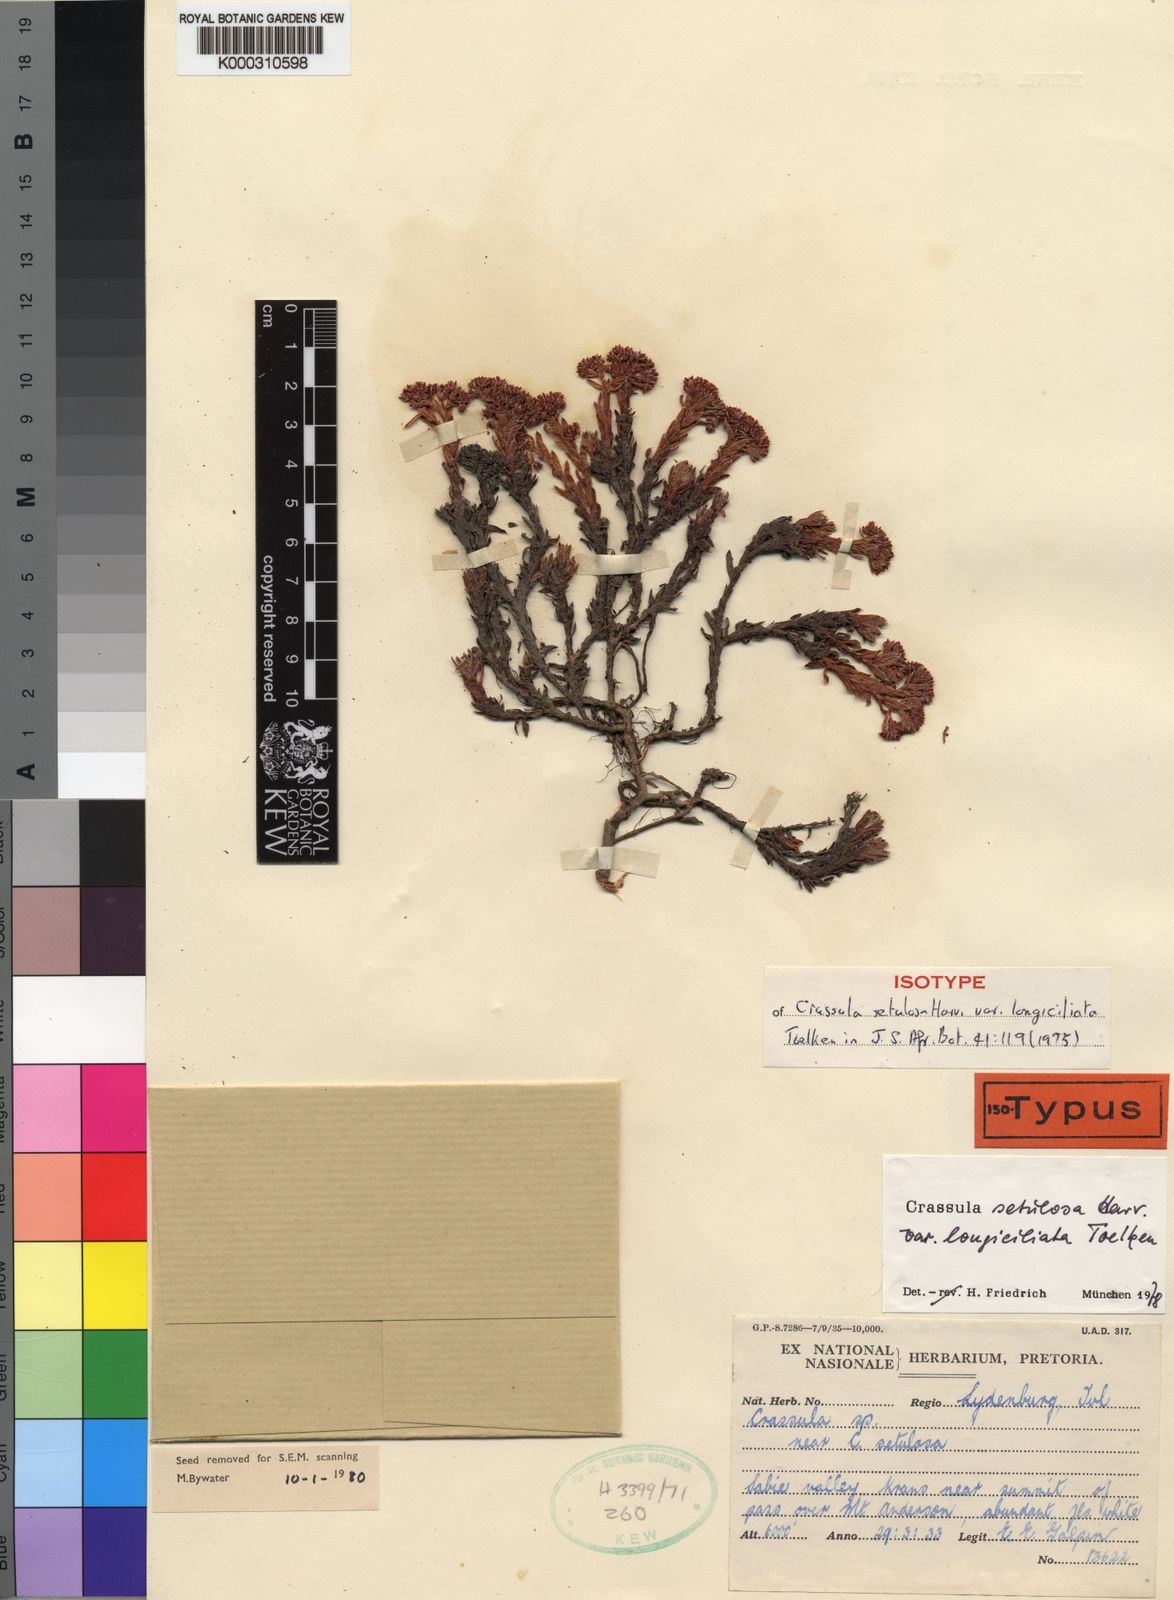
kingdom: Plantae
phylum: Tracheophyta
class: Magnoliopsida
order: Saxifragales
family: Crassulaceae
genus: Crassula
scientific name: Crassula setulosa
